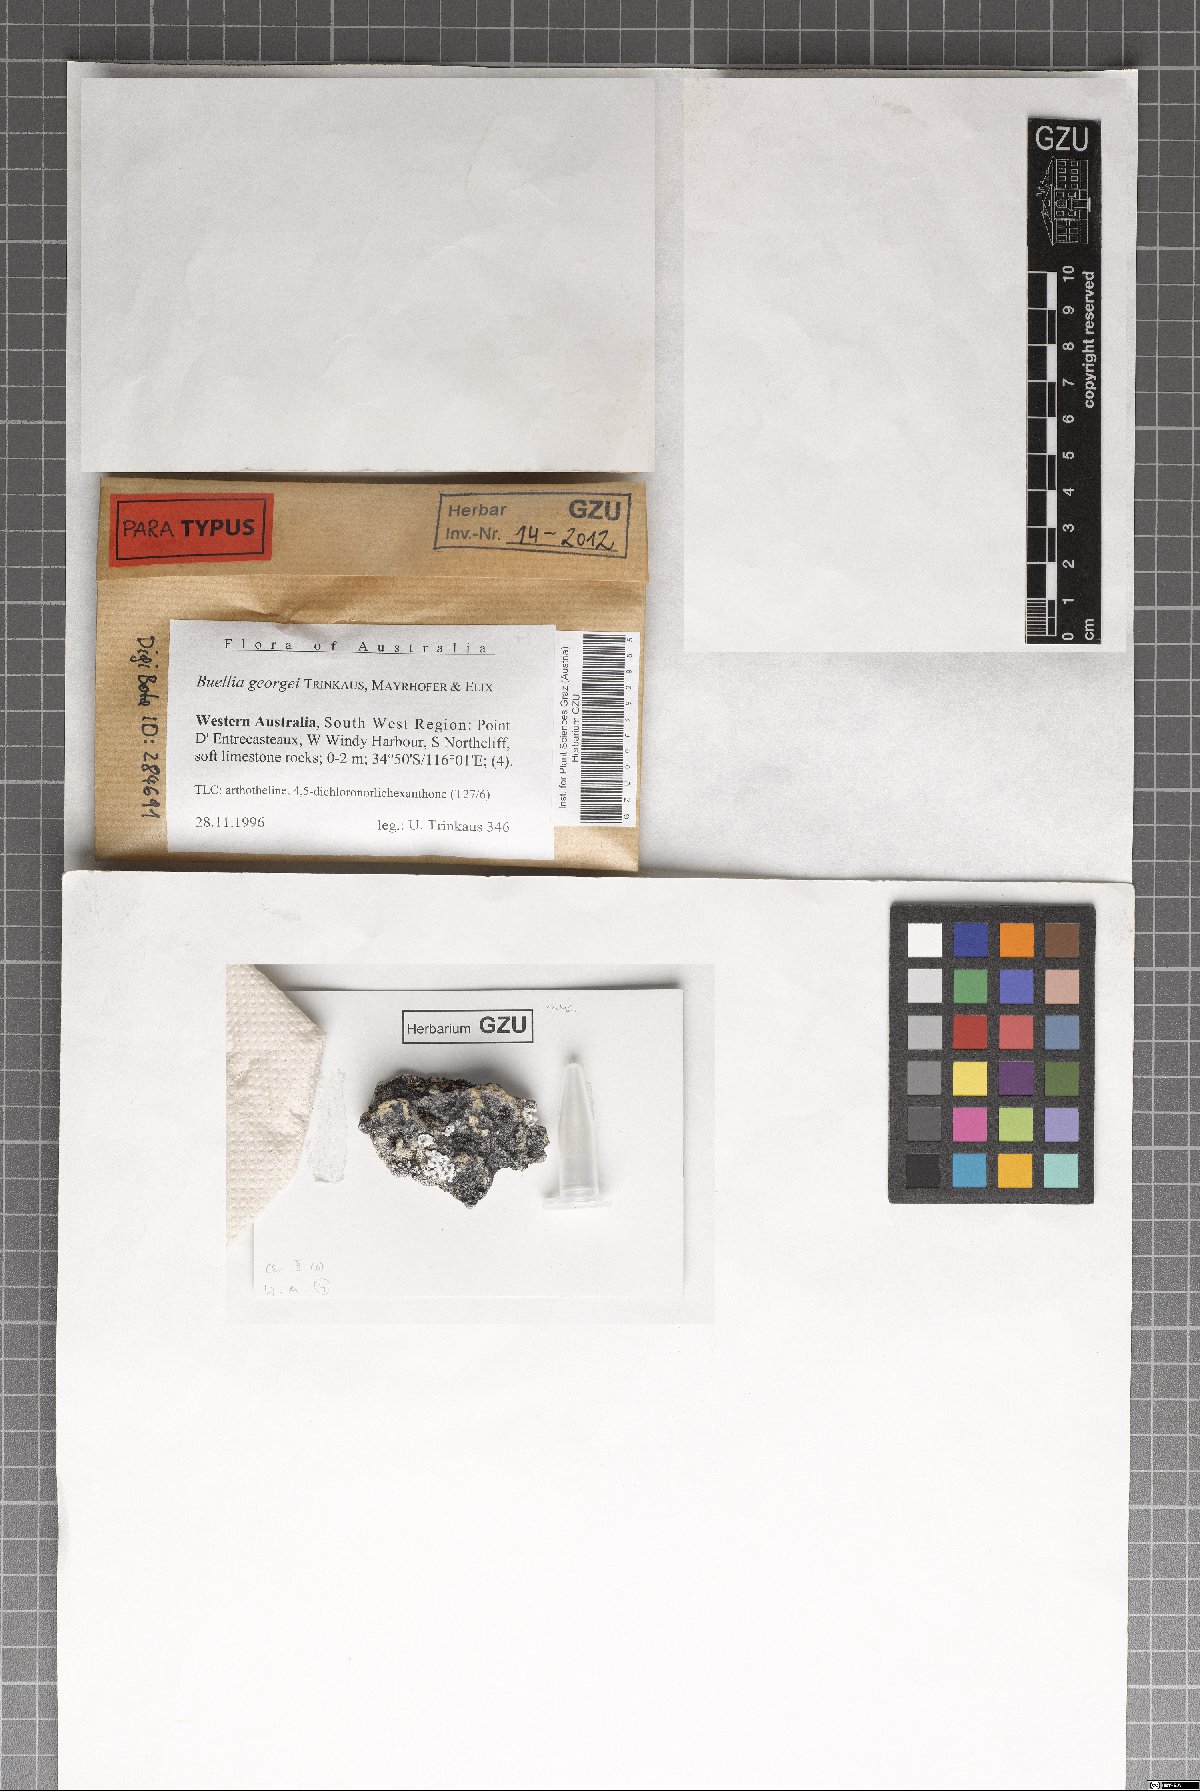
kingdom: Fungi
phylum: Ascomycota
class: Lecanoromycetes
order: Caliciales
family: Caliciaceae
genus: Buellia
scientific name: Buellia georgei
